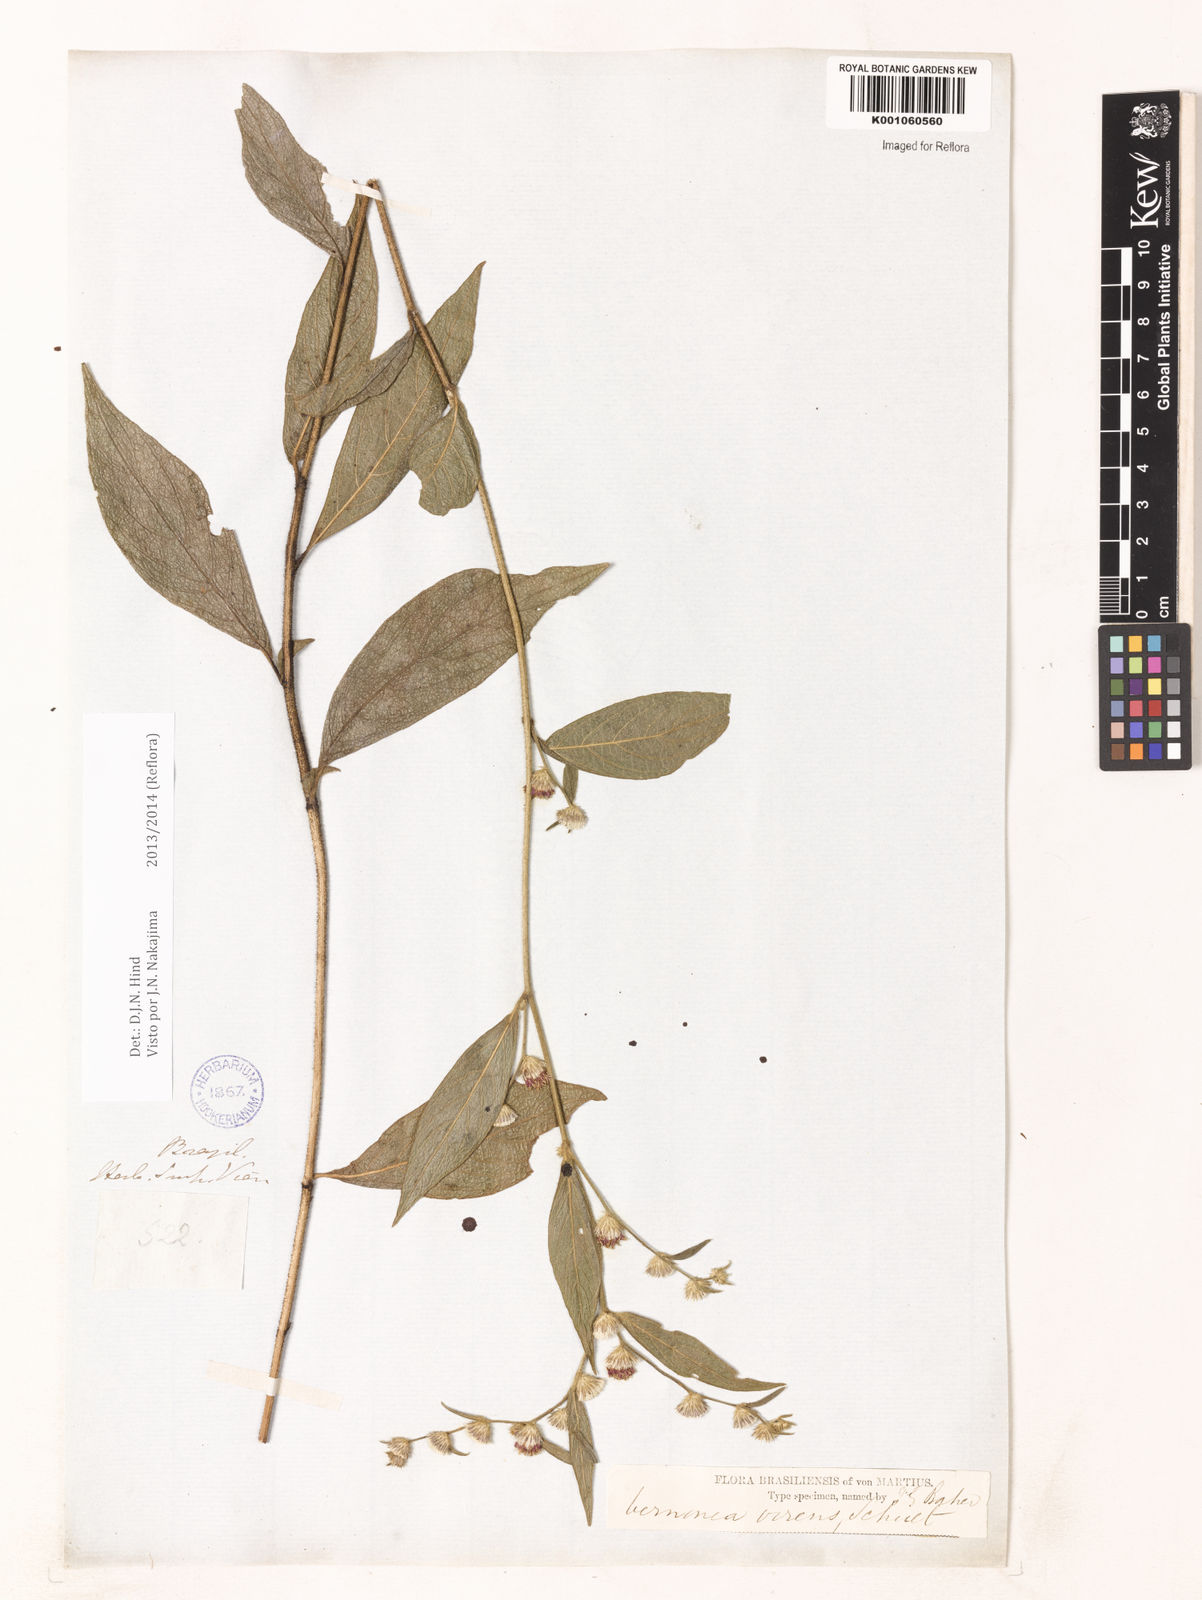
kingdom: Plantae
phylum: Tracheophyta
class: Magnoliopsida
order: Asterales
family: Asteraceae
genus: Vernonia
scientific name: Vernonia
